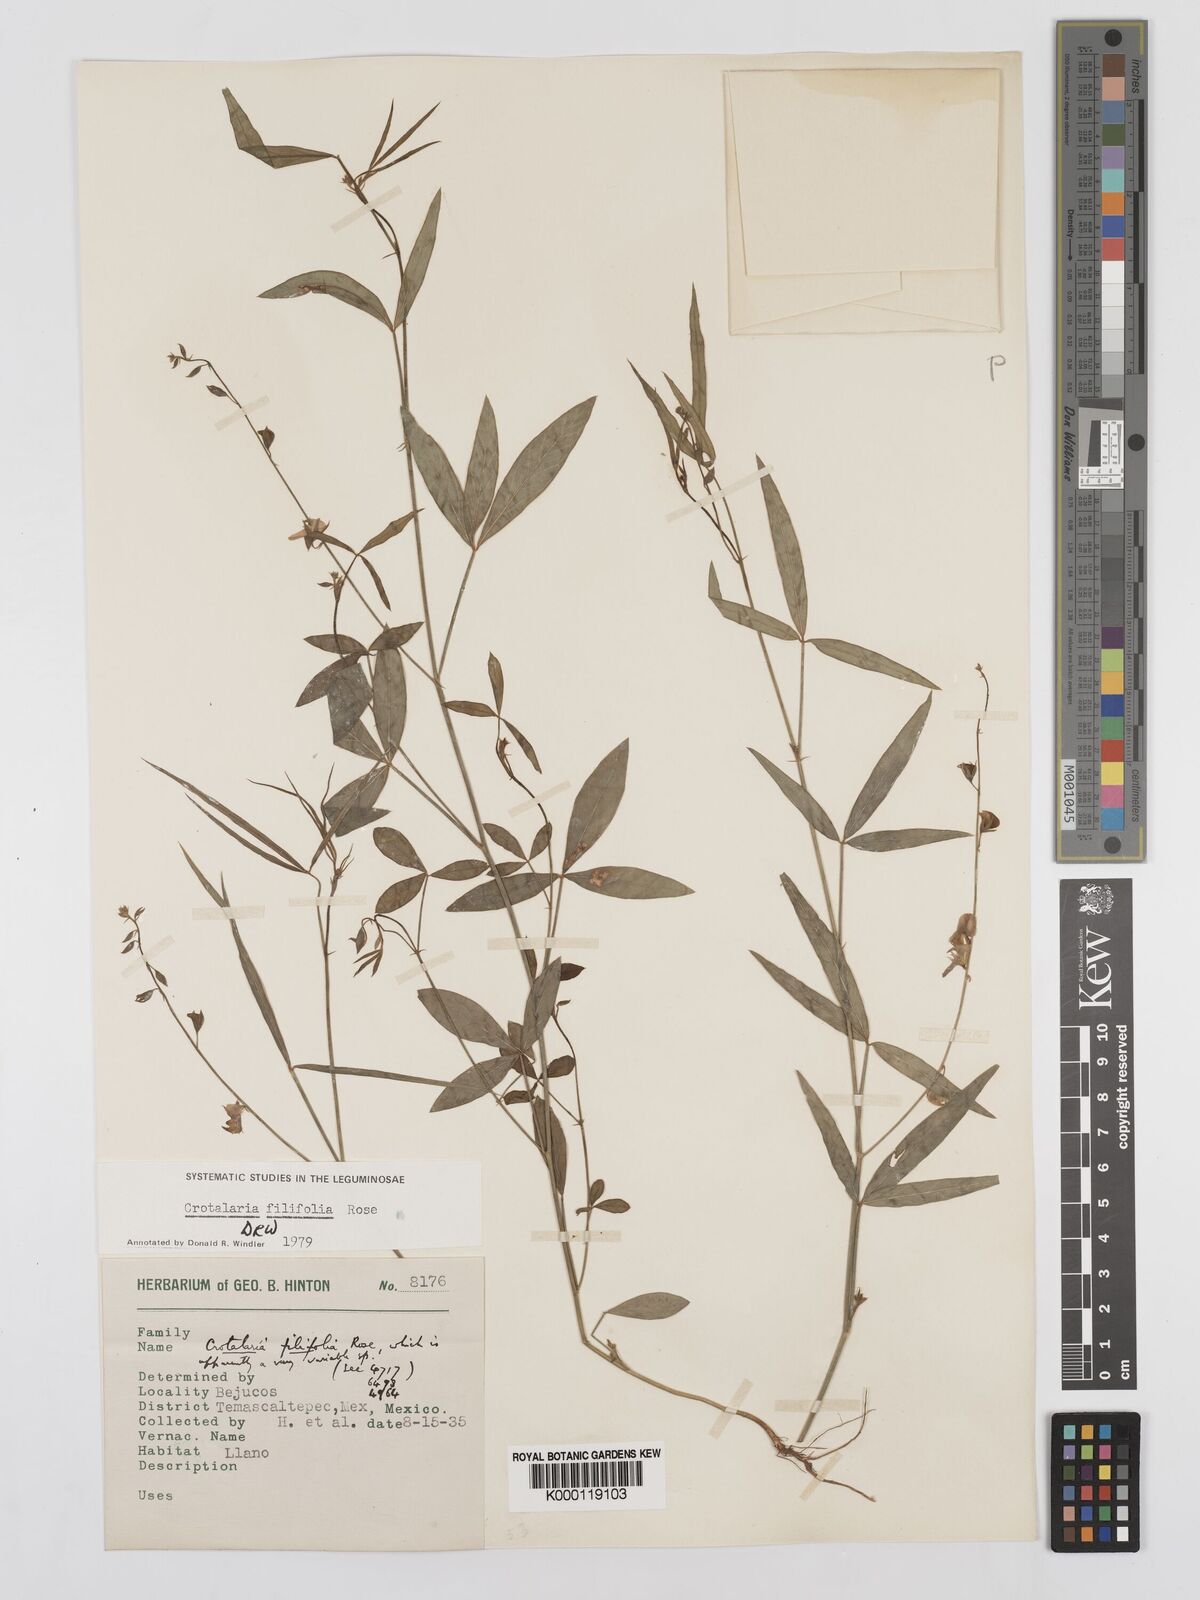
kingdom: Plantae
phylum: Tracheophyta
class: Magnoliopsida
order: Fabales
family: Fabaceae
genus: Crotalaria
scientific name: Crotalaria filifolia
